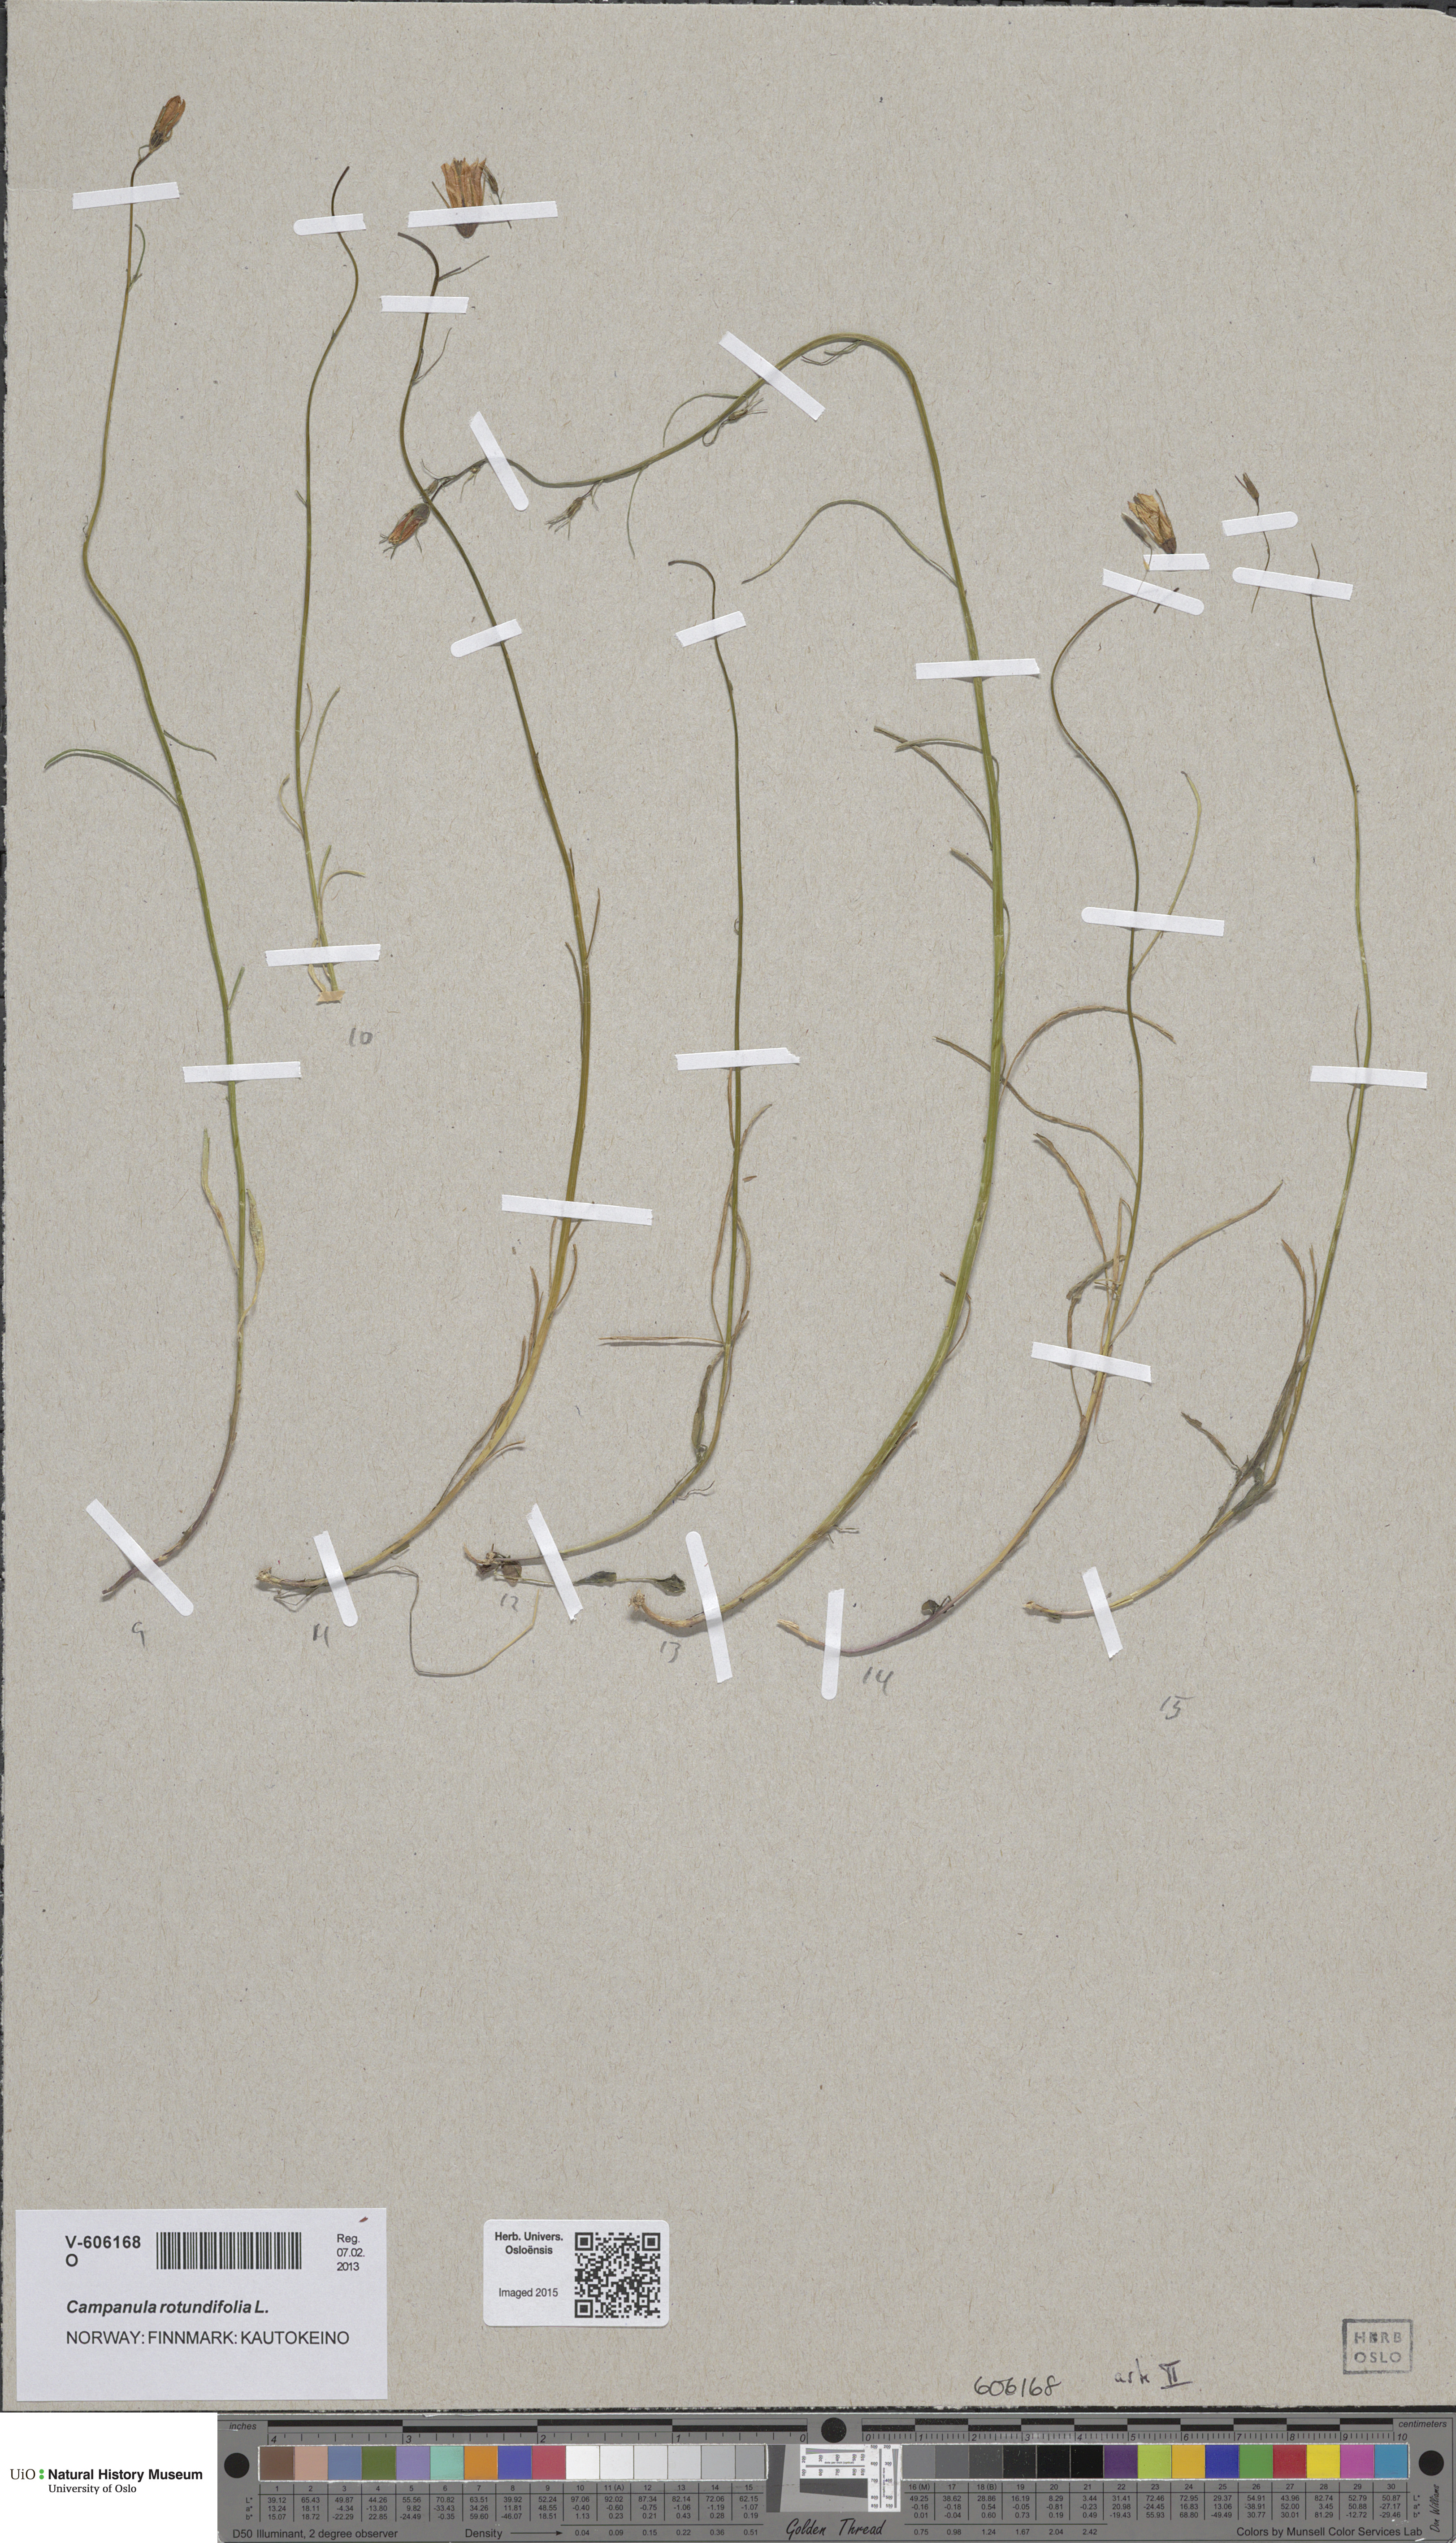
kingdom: Plantae
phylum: Tracheophyta
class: Magnoliopsida
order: Asterales
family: Campanulaceae
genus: Campanula
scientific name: Campanula rotundifolia
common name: Harebell
